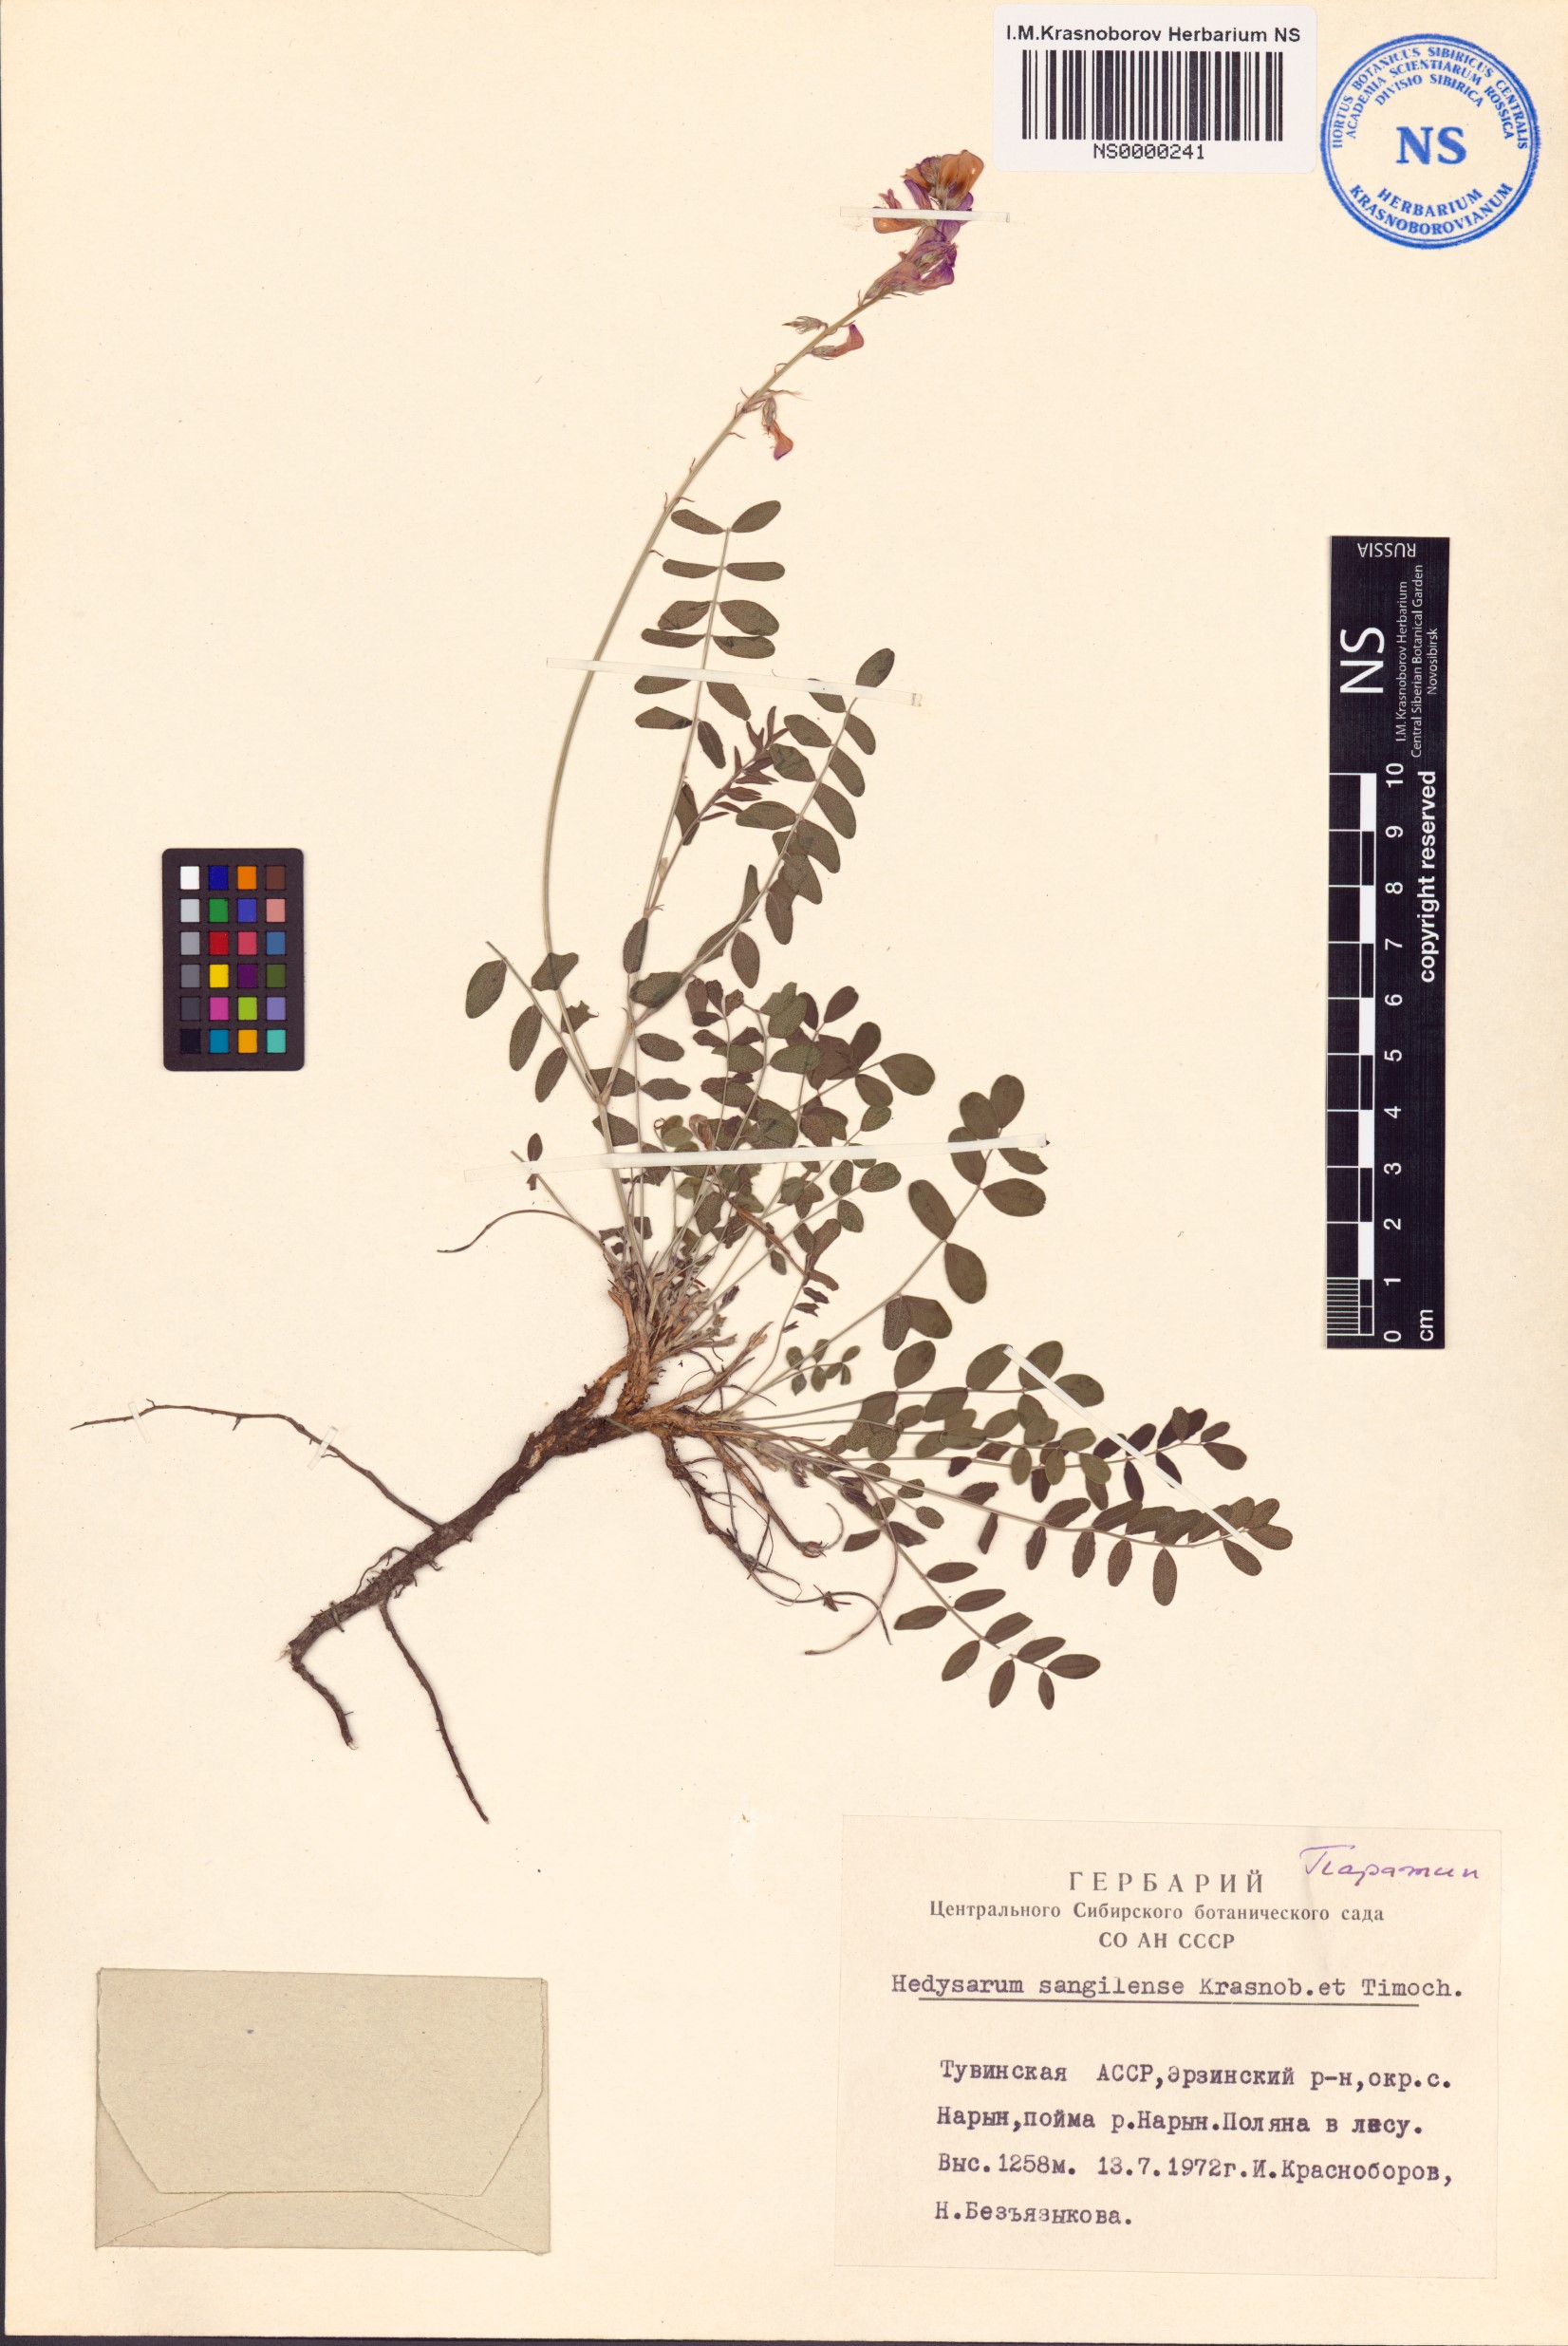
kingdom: Plantae
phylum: Tracheophyta
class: Magnoliopsida
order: Fabales
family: Fabaceae
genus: Hedysarum
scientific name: Hedysarum sangilense
